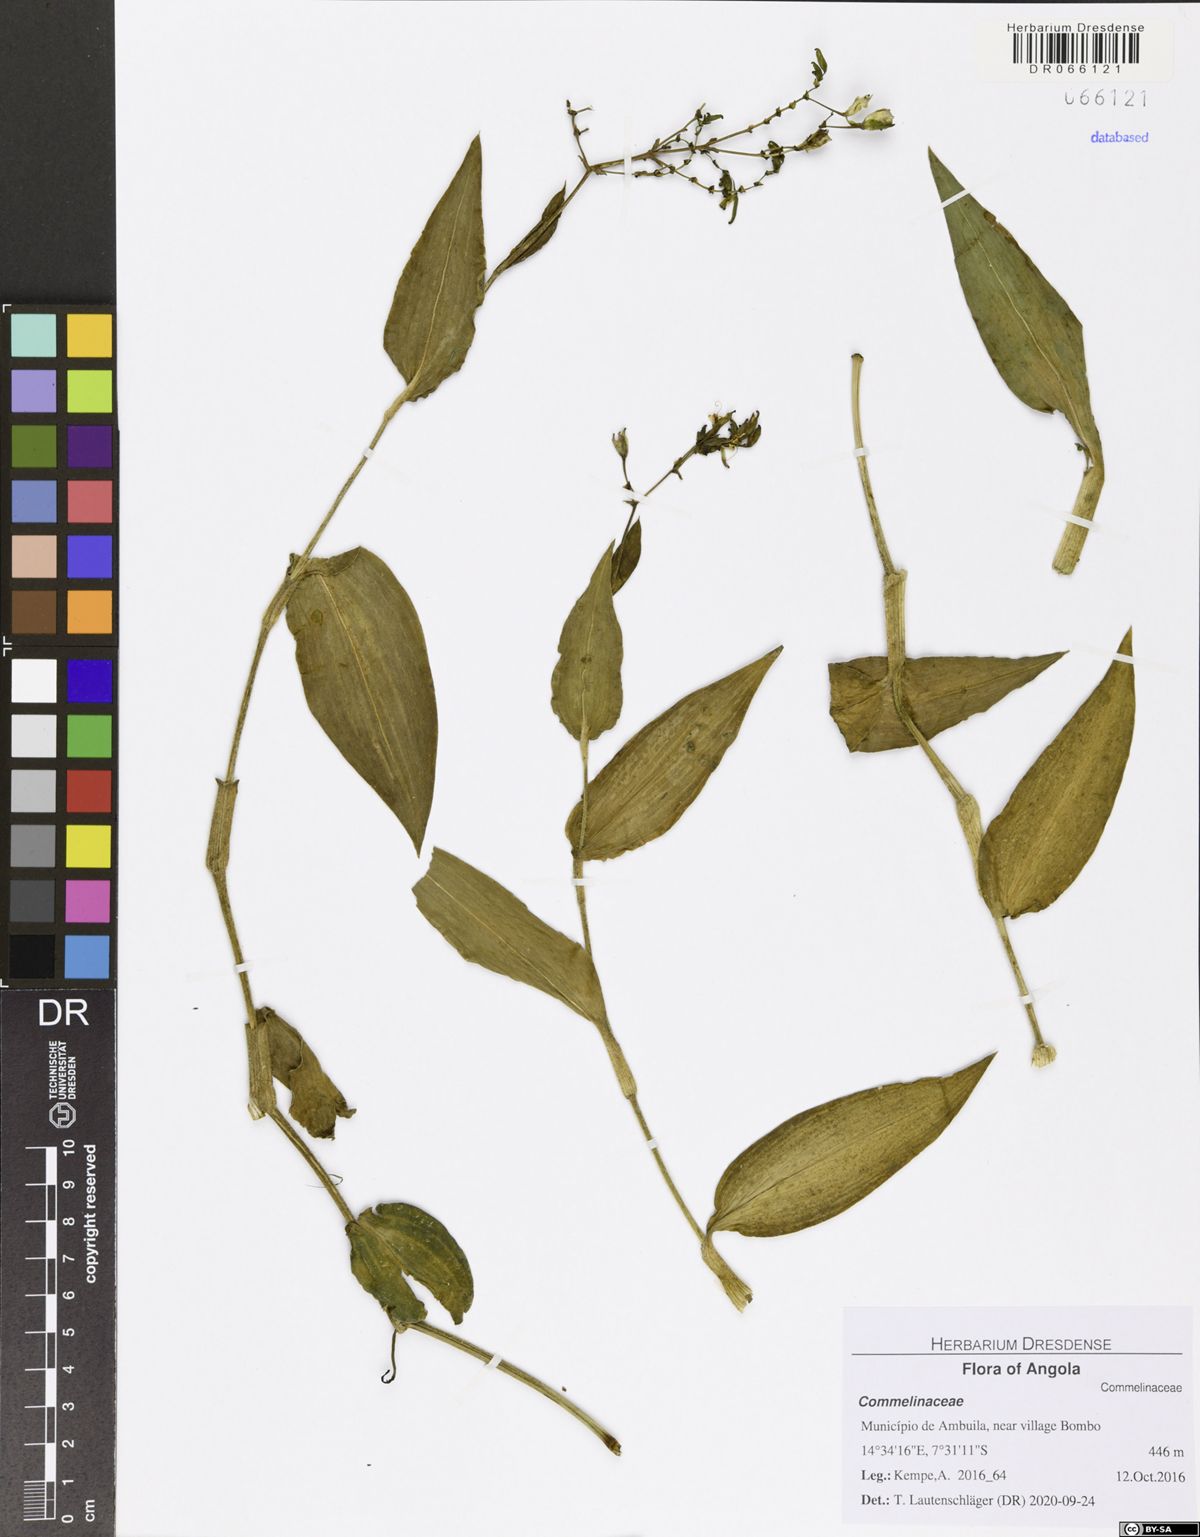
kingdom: Plantae
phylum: Tracheophyta
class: Liliopsida
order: Commelinales
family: Commelinaceae
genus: Aneilema
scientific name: Aneilema aequinoctiale
